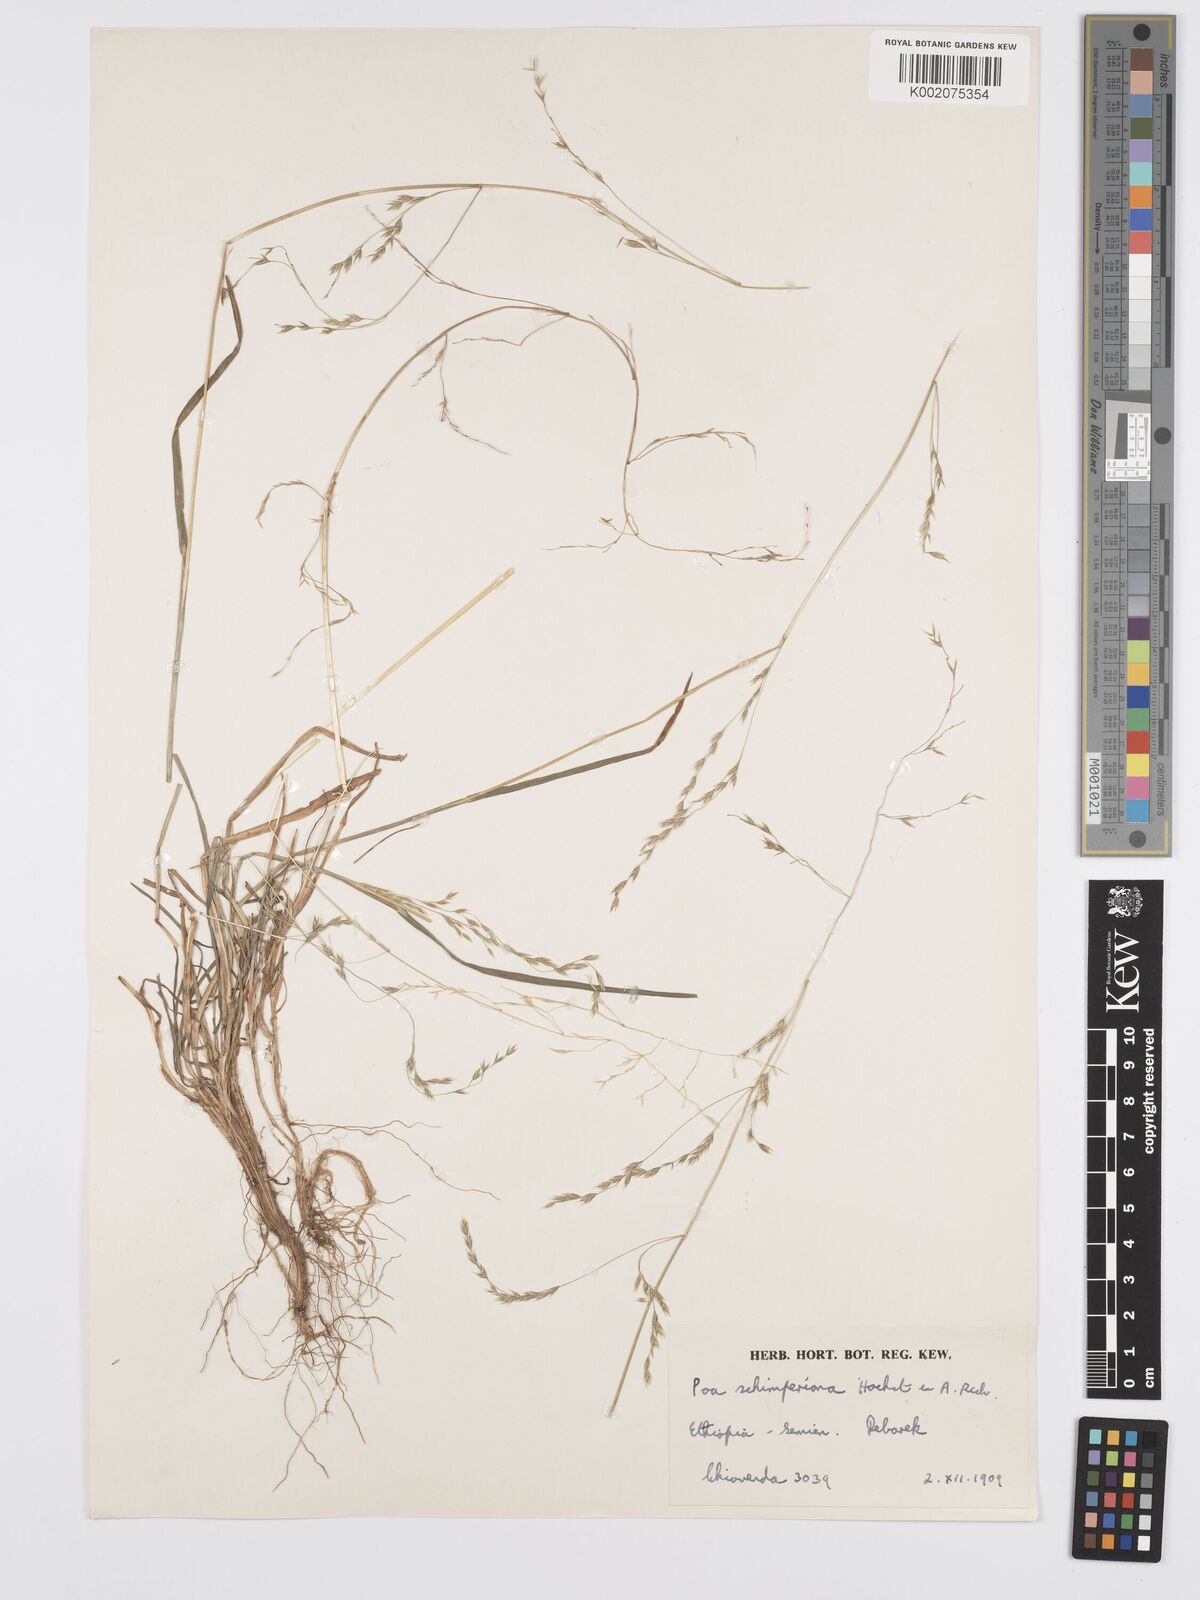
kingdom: Plantae
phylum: Tracheophyta
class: Liliopsida
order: Poales
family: Poaceae
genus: Poa
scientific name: Poa schimperiana
